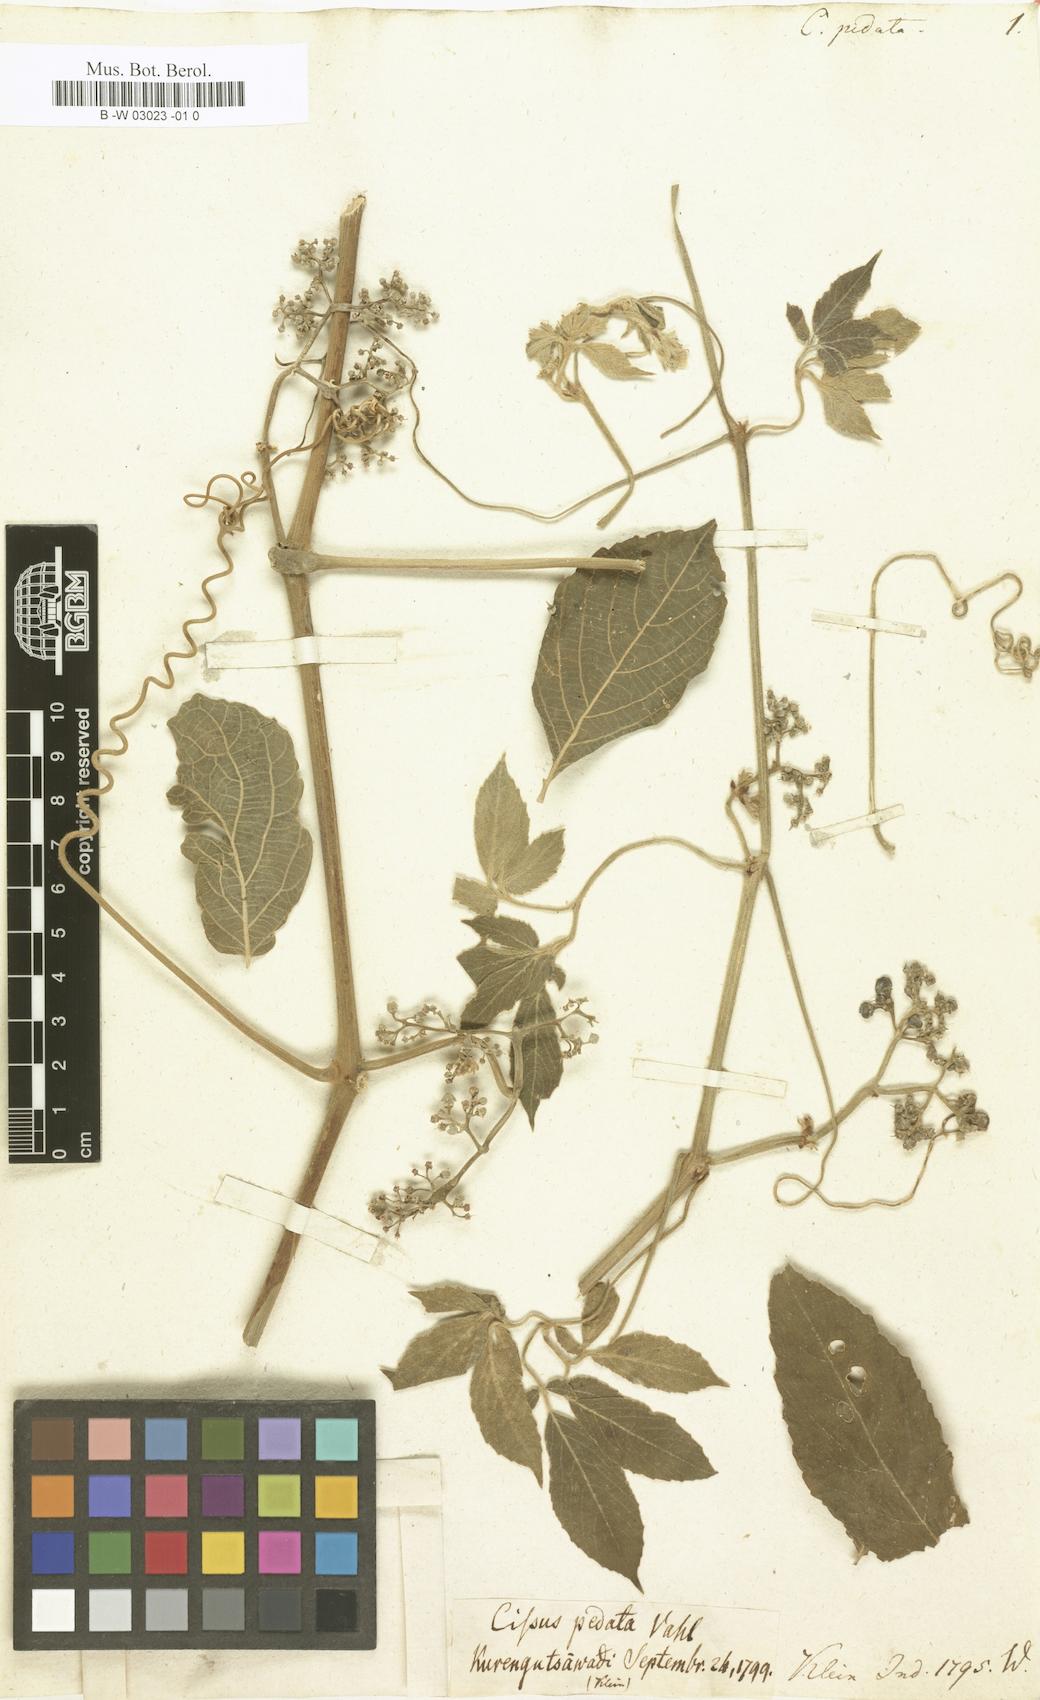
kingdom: Plantae
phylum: Tracheophyta
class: Magnoliopsida
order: Vitales
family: Vitaceae
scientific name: Vitaceae
